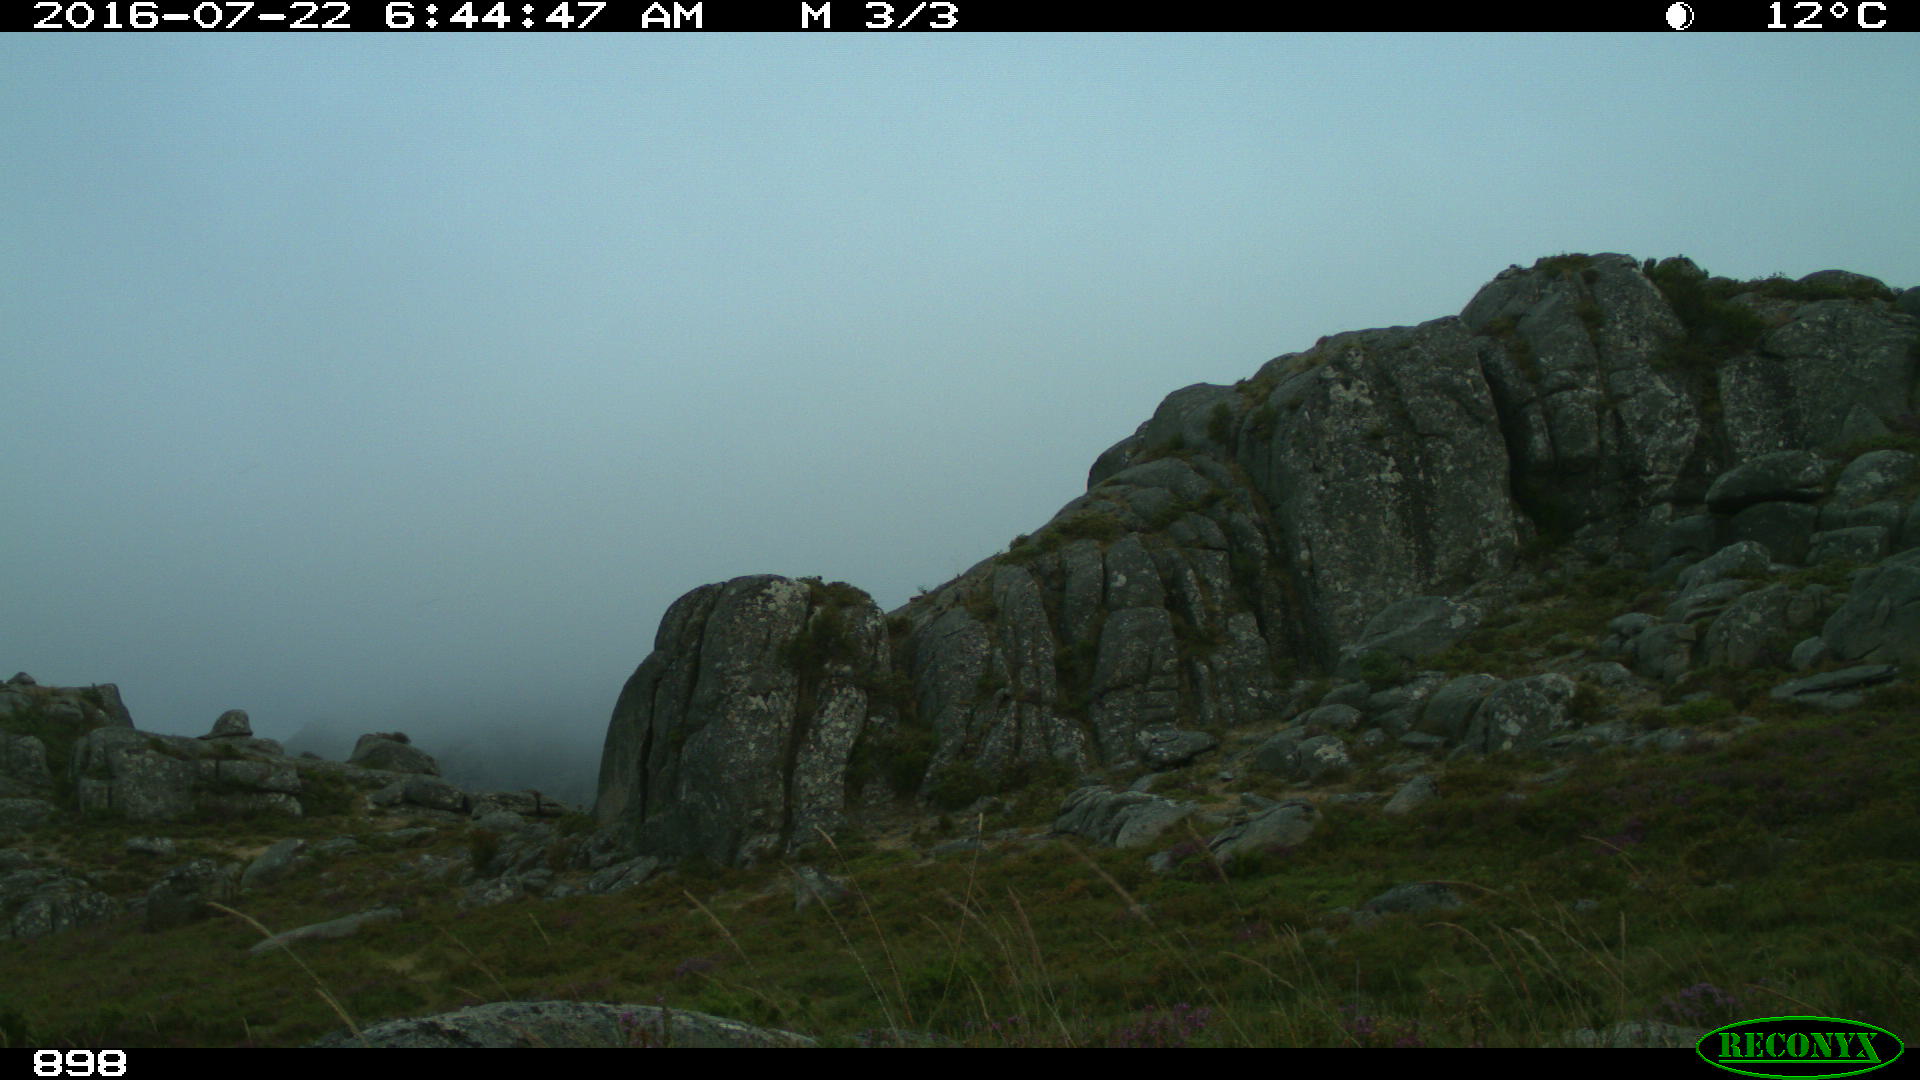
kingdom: Animalia
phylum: Chordata
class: Mammalia
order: Carnivora
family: Canidae
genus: Canis
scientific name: Canis lupus
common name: Gray wolf
